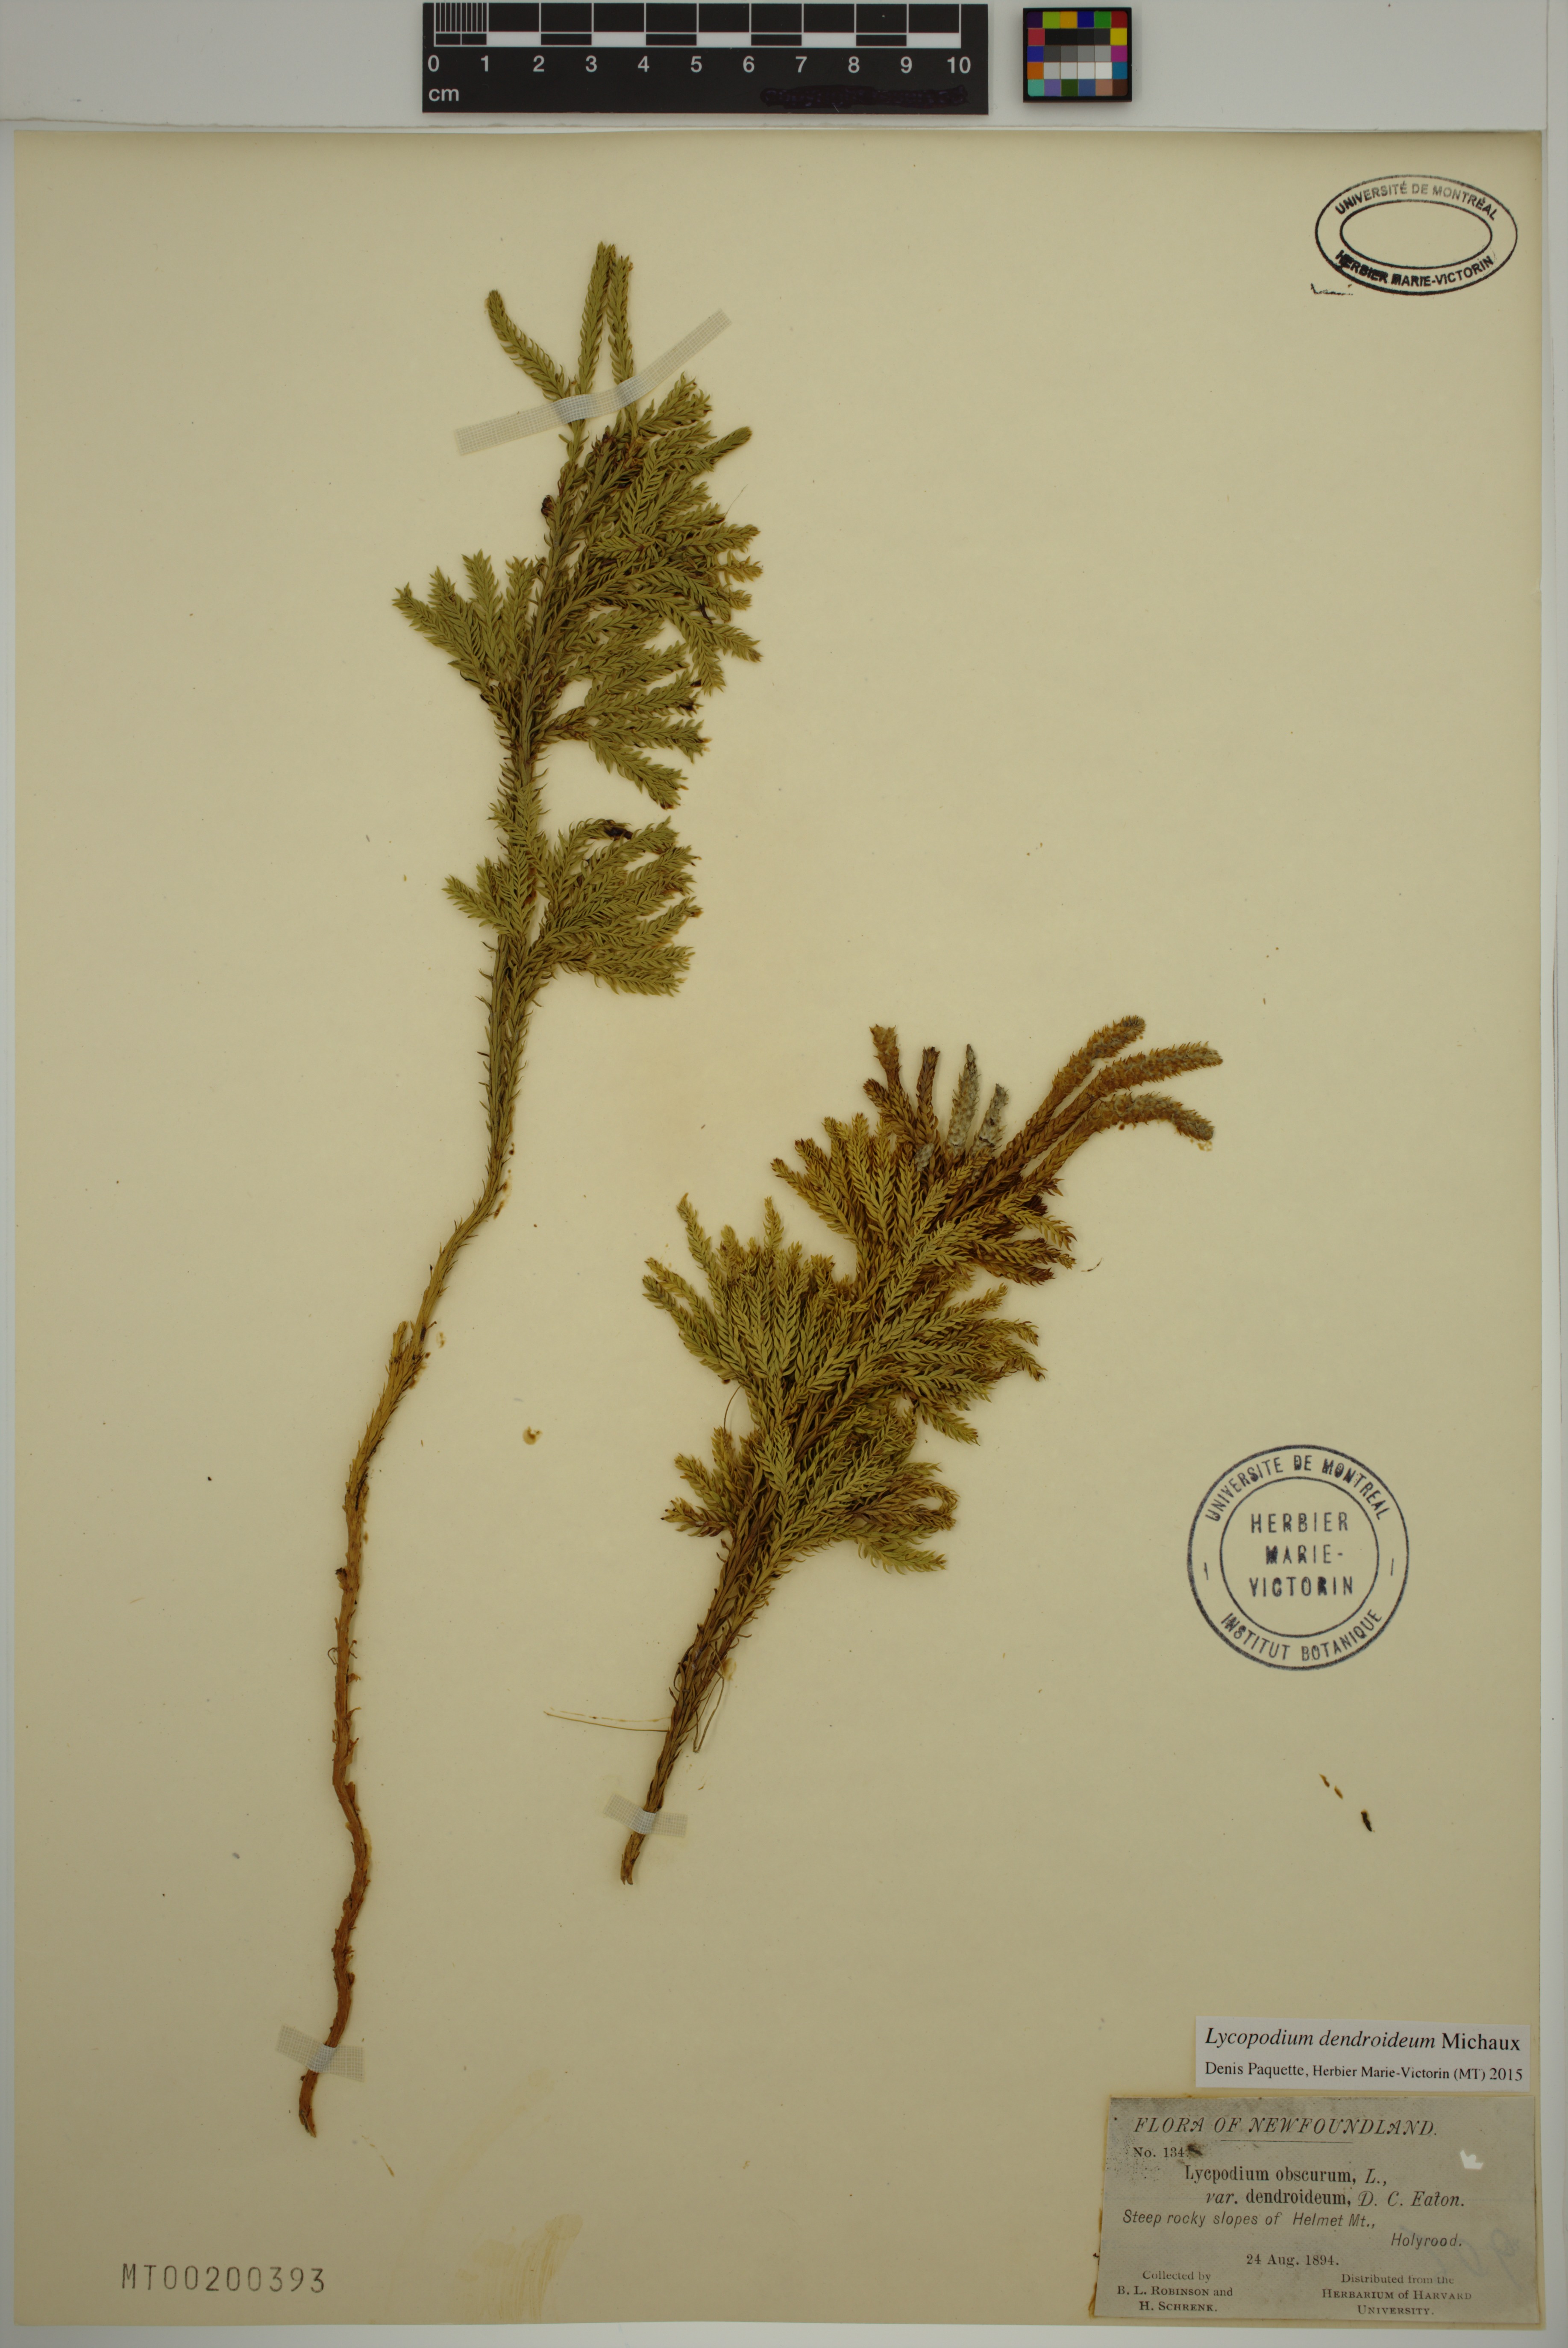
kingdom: Plantae
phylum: Tracheophyta
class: Lycopodiopsida
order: Lycopodiales
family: Lycopodiaceae
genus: Dendrolycopodium
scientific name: Dendrolycopodium dendroideum
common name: Northern tree-clubmoss
